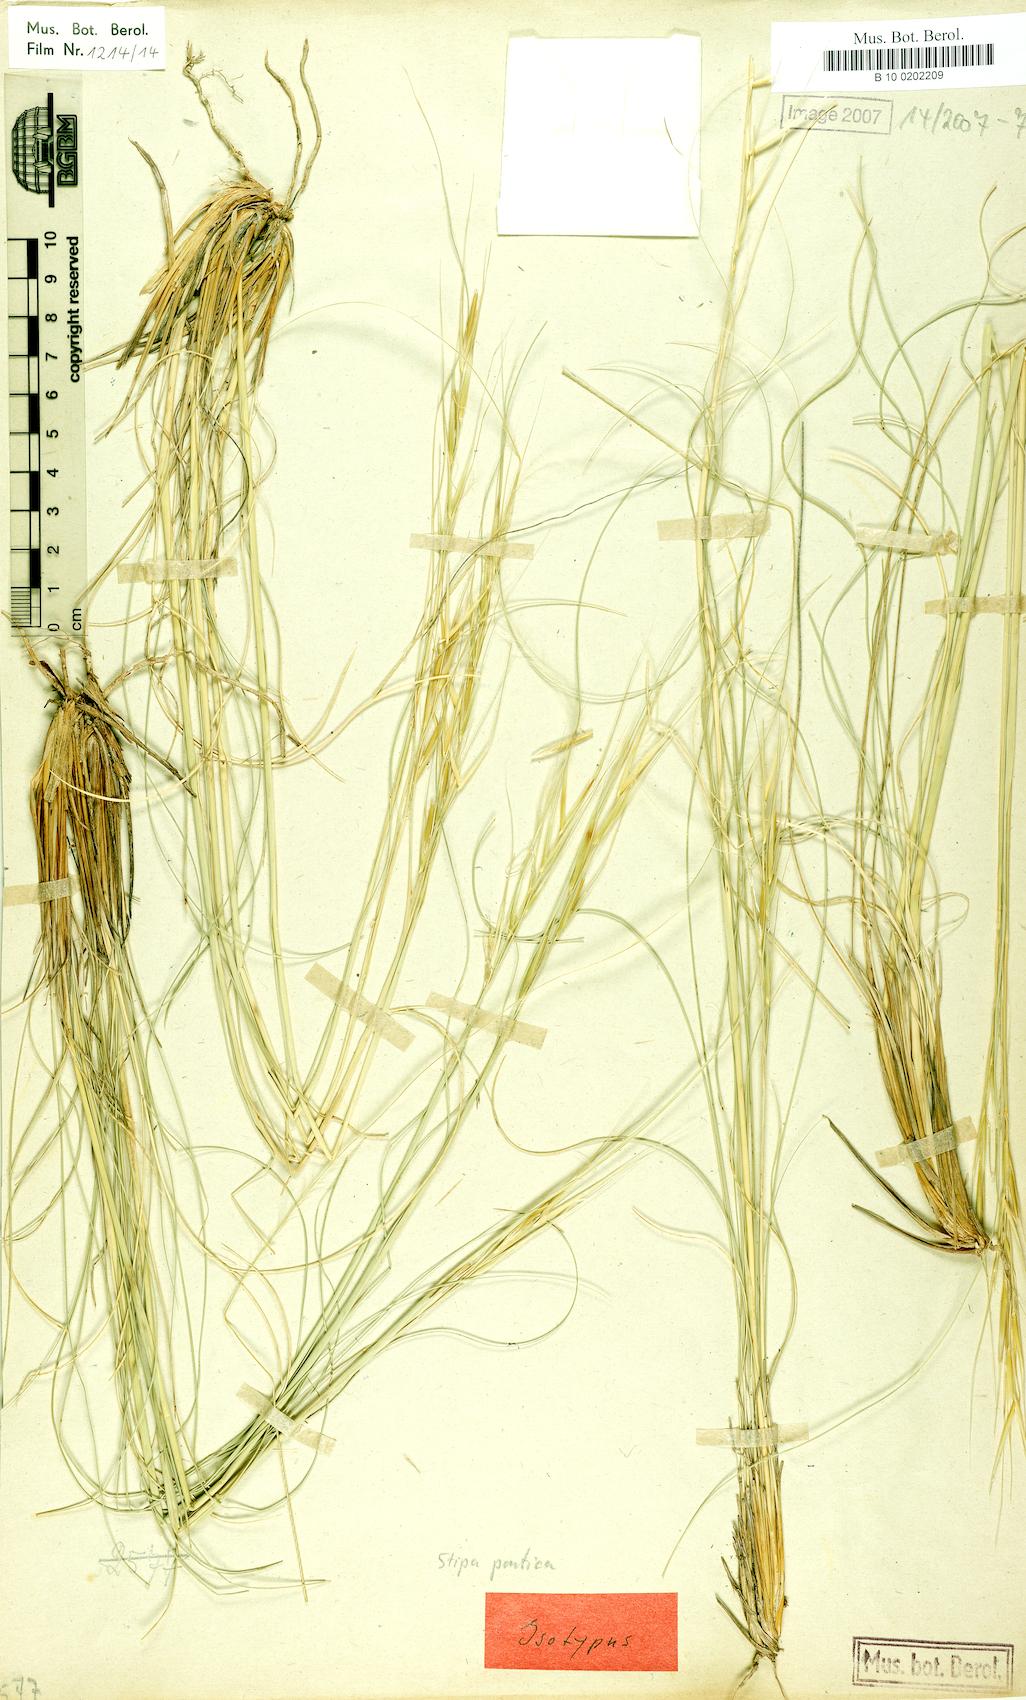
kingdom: Plantae
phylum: Tracheophyta
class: Liliopsida
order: Poales
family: Poaceae
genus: Stipa
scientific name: Stipa pontica
